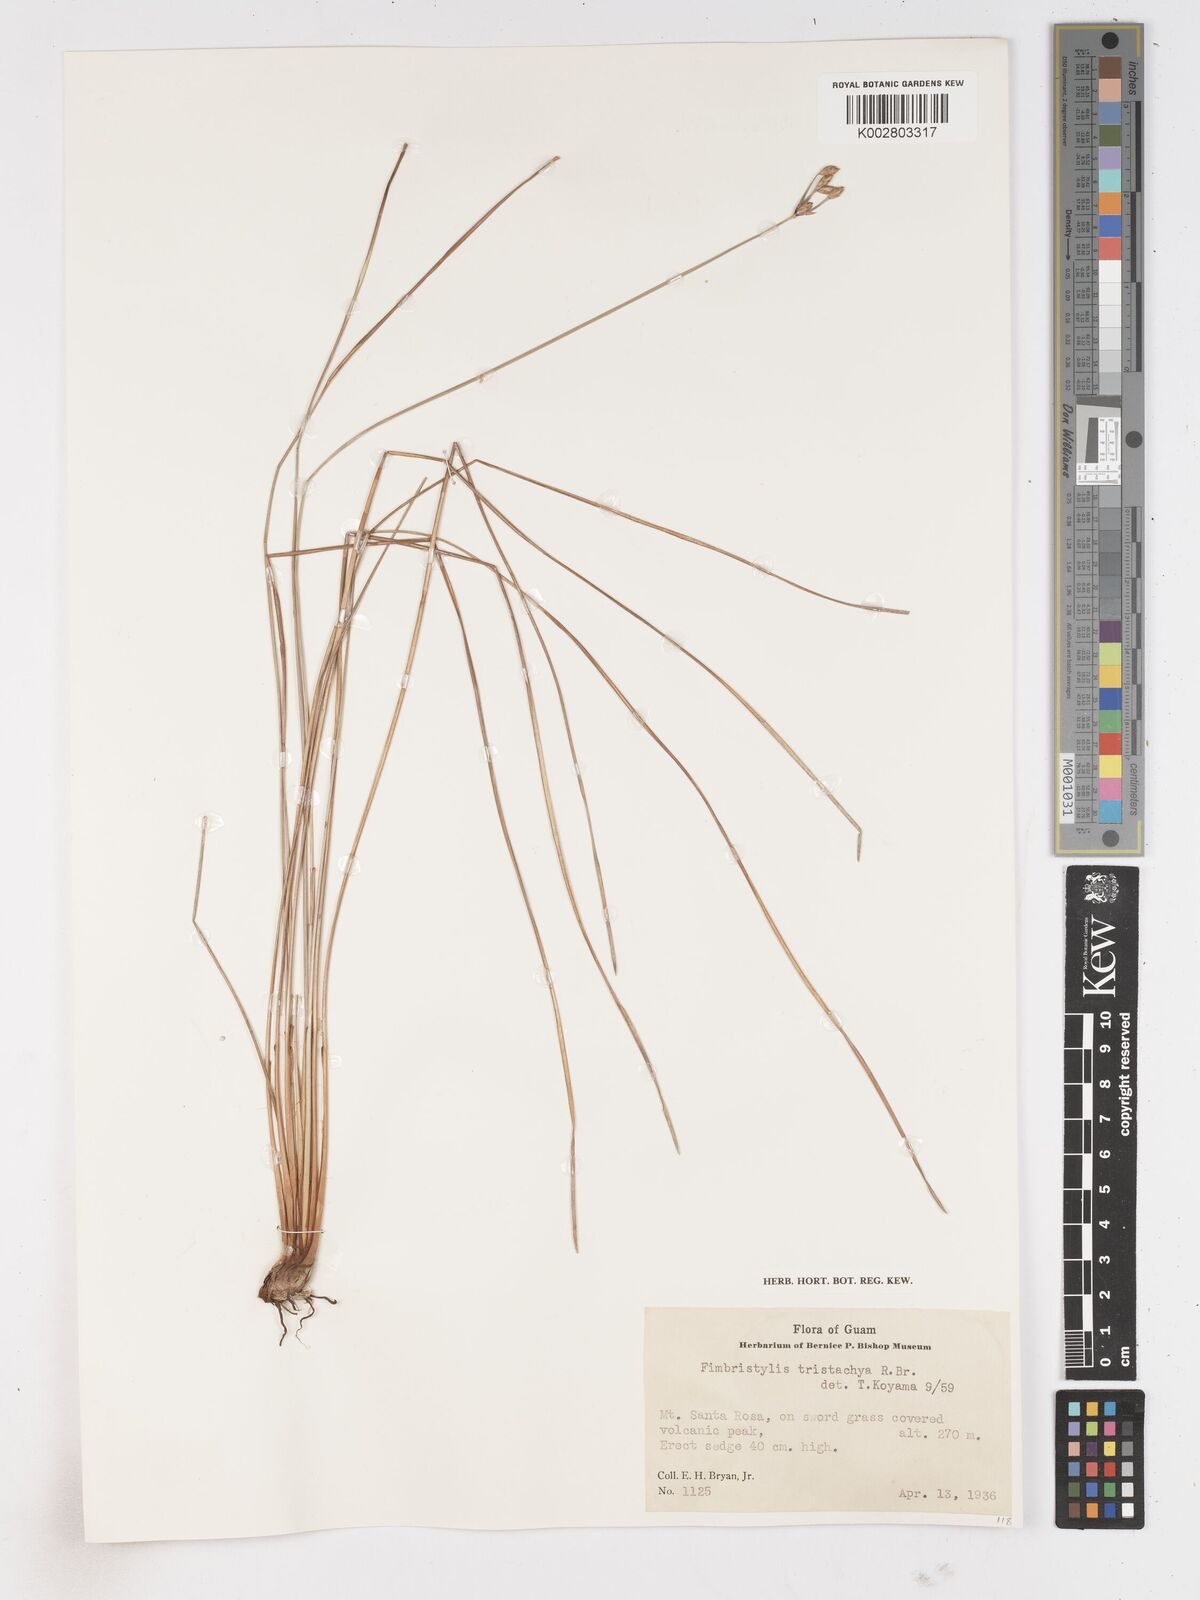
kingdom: Plantae
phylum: Tracheophyta
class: Liliopsida
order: Poales
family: Cyperaceae
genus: Fimbristylis
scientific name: Fimbristylis tristachya
